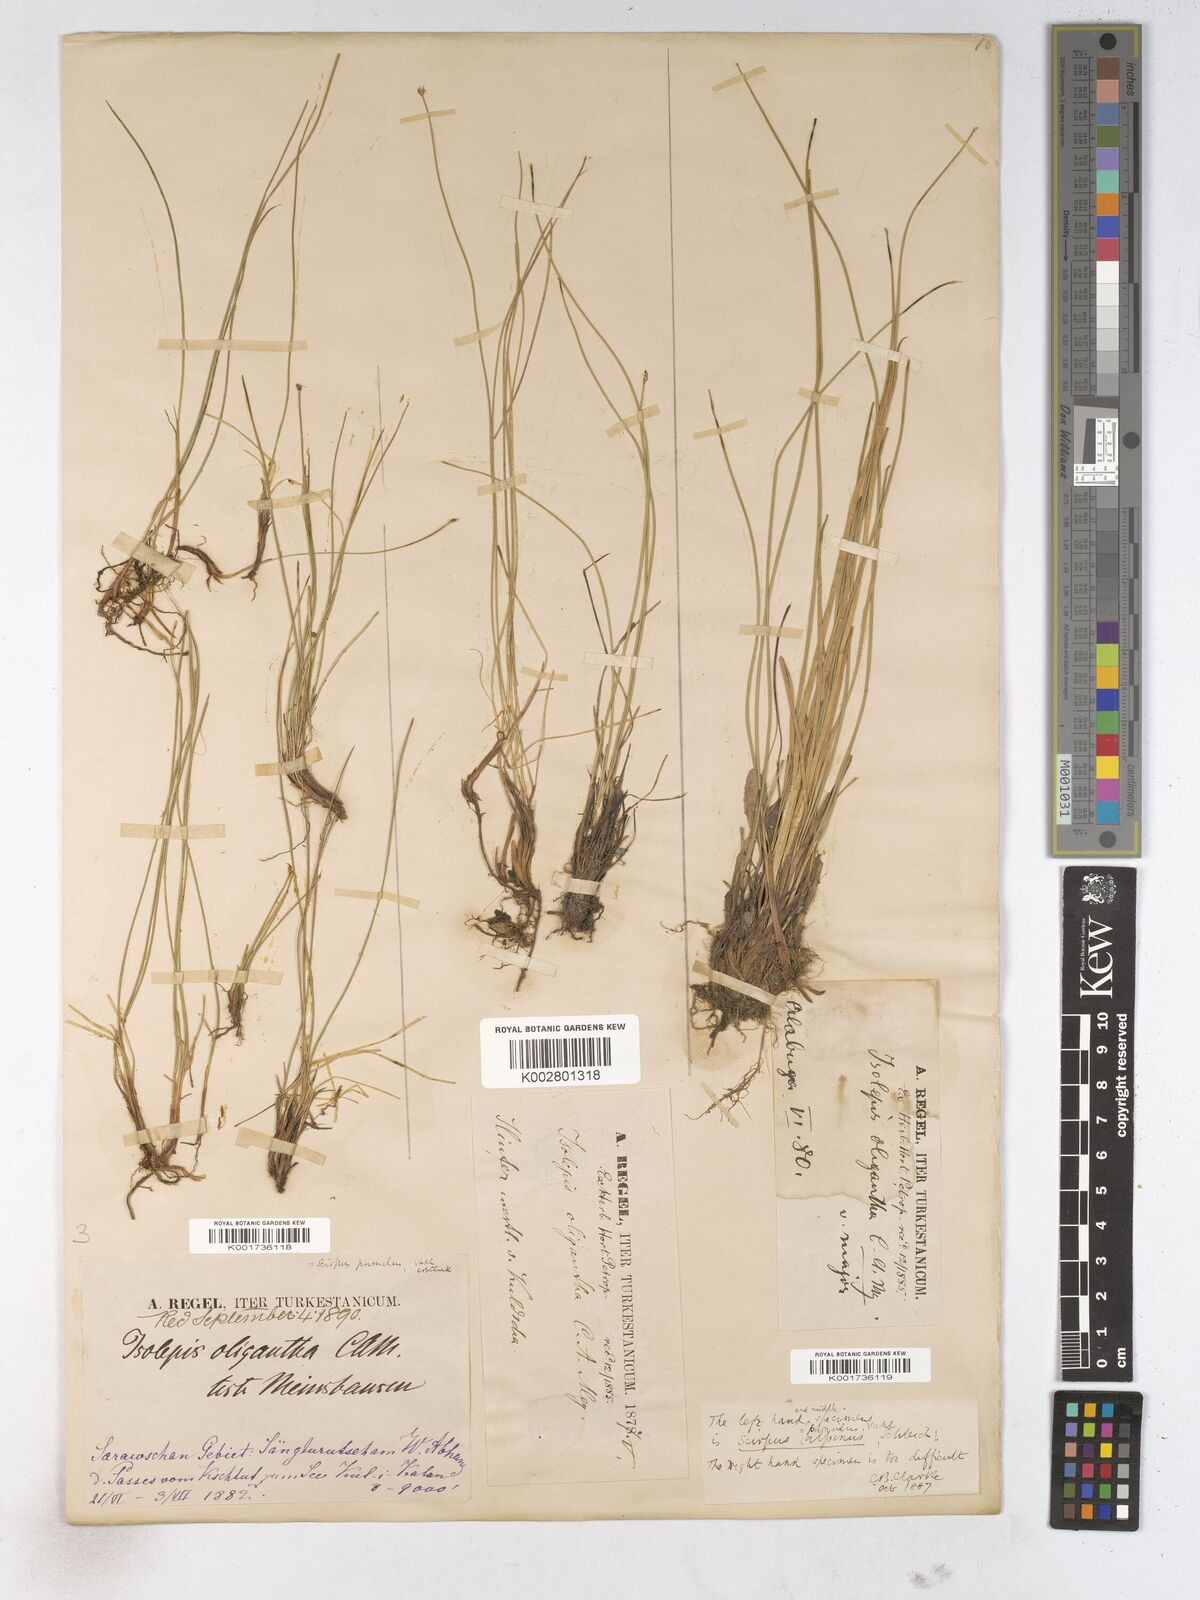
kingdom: Plantae
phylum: Tracheophyta
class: Liliopsida
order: Poales
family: Cyperaceae
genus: Trichophorum
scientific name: Trichophorum pumilum
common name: Rolland's bulrush
